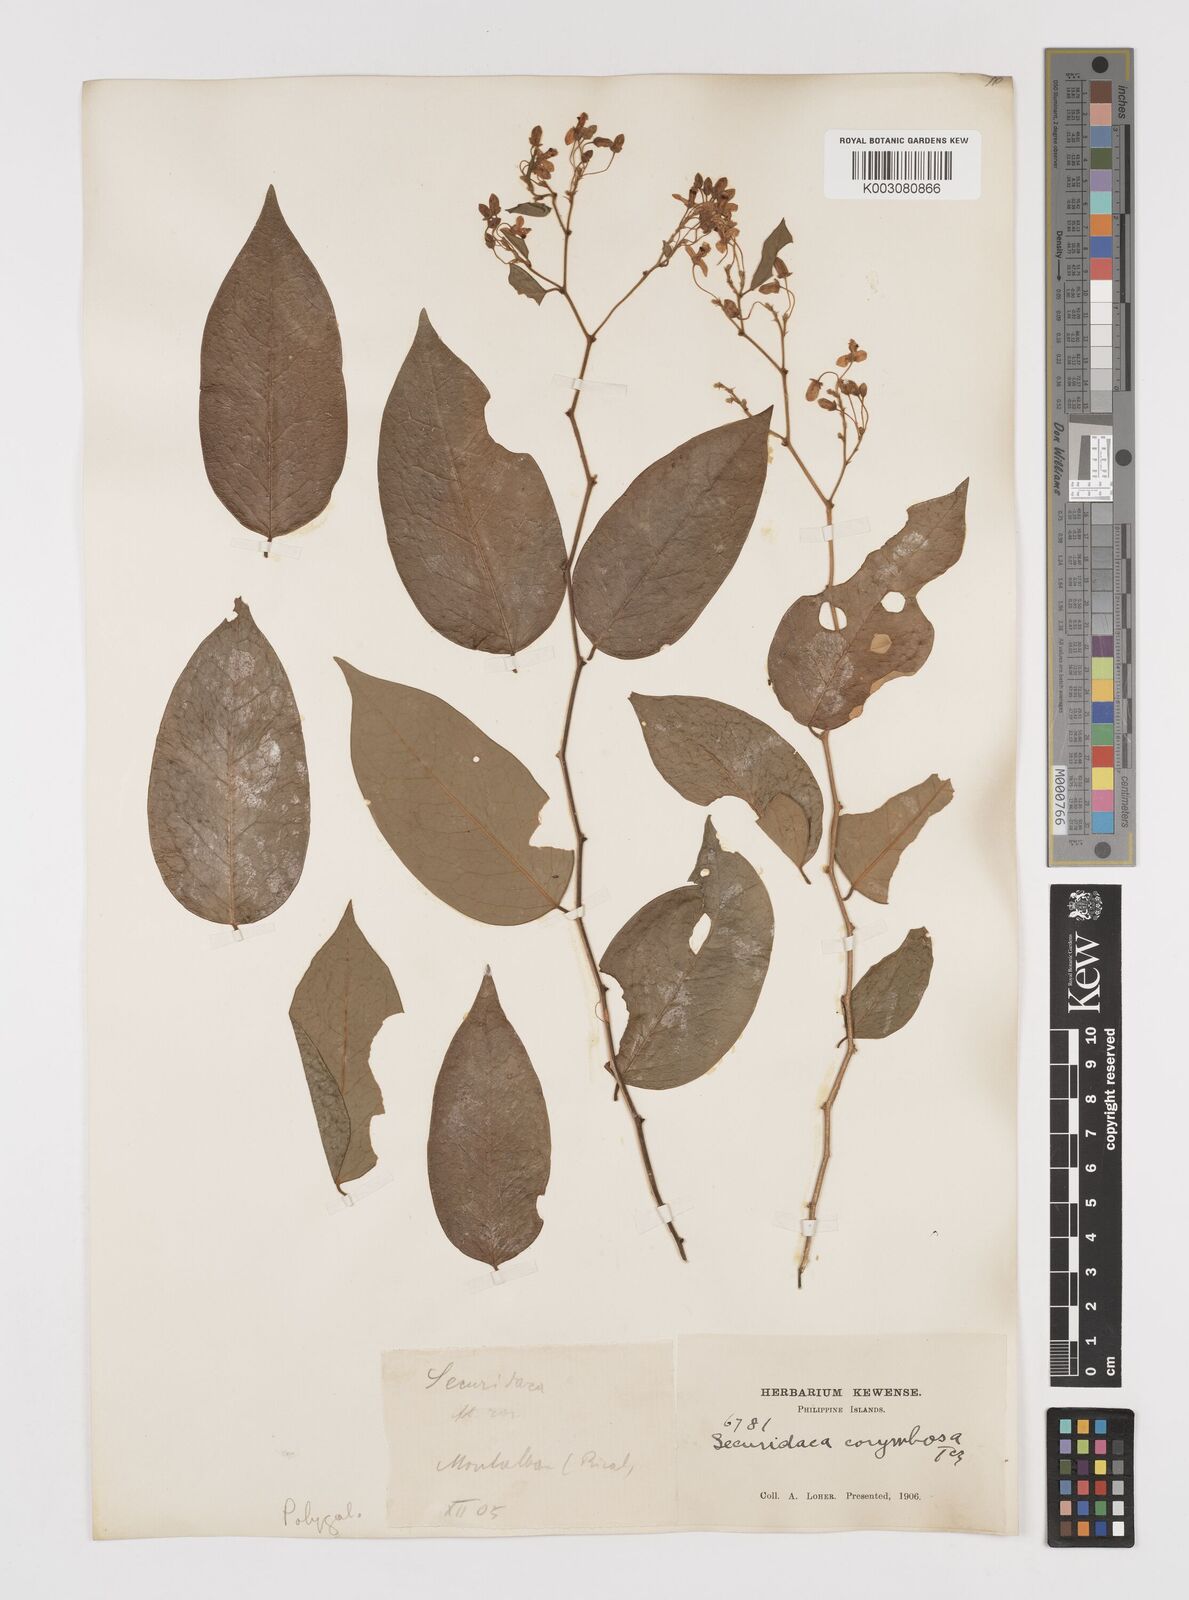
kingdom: Plantae
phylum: Tracheophyta
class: Magnoliopsida
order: Fabales
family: Polygalaceae
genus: Securidaca
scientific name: Securidaca inappendiculata
